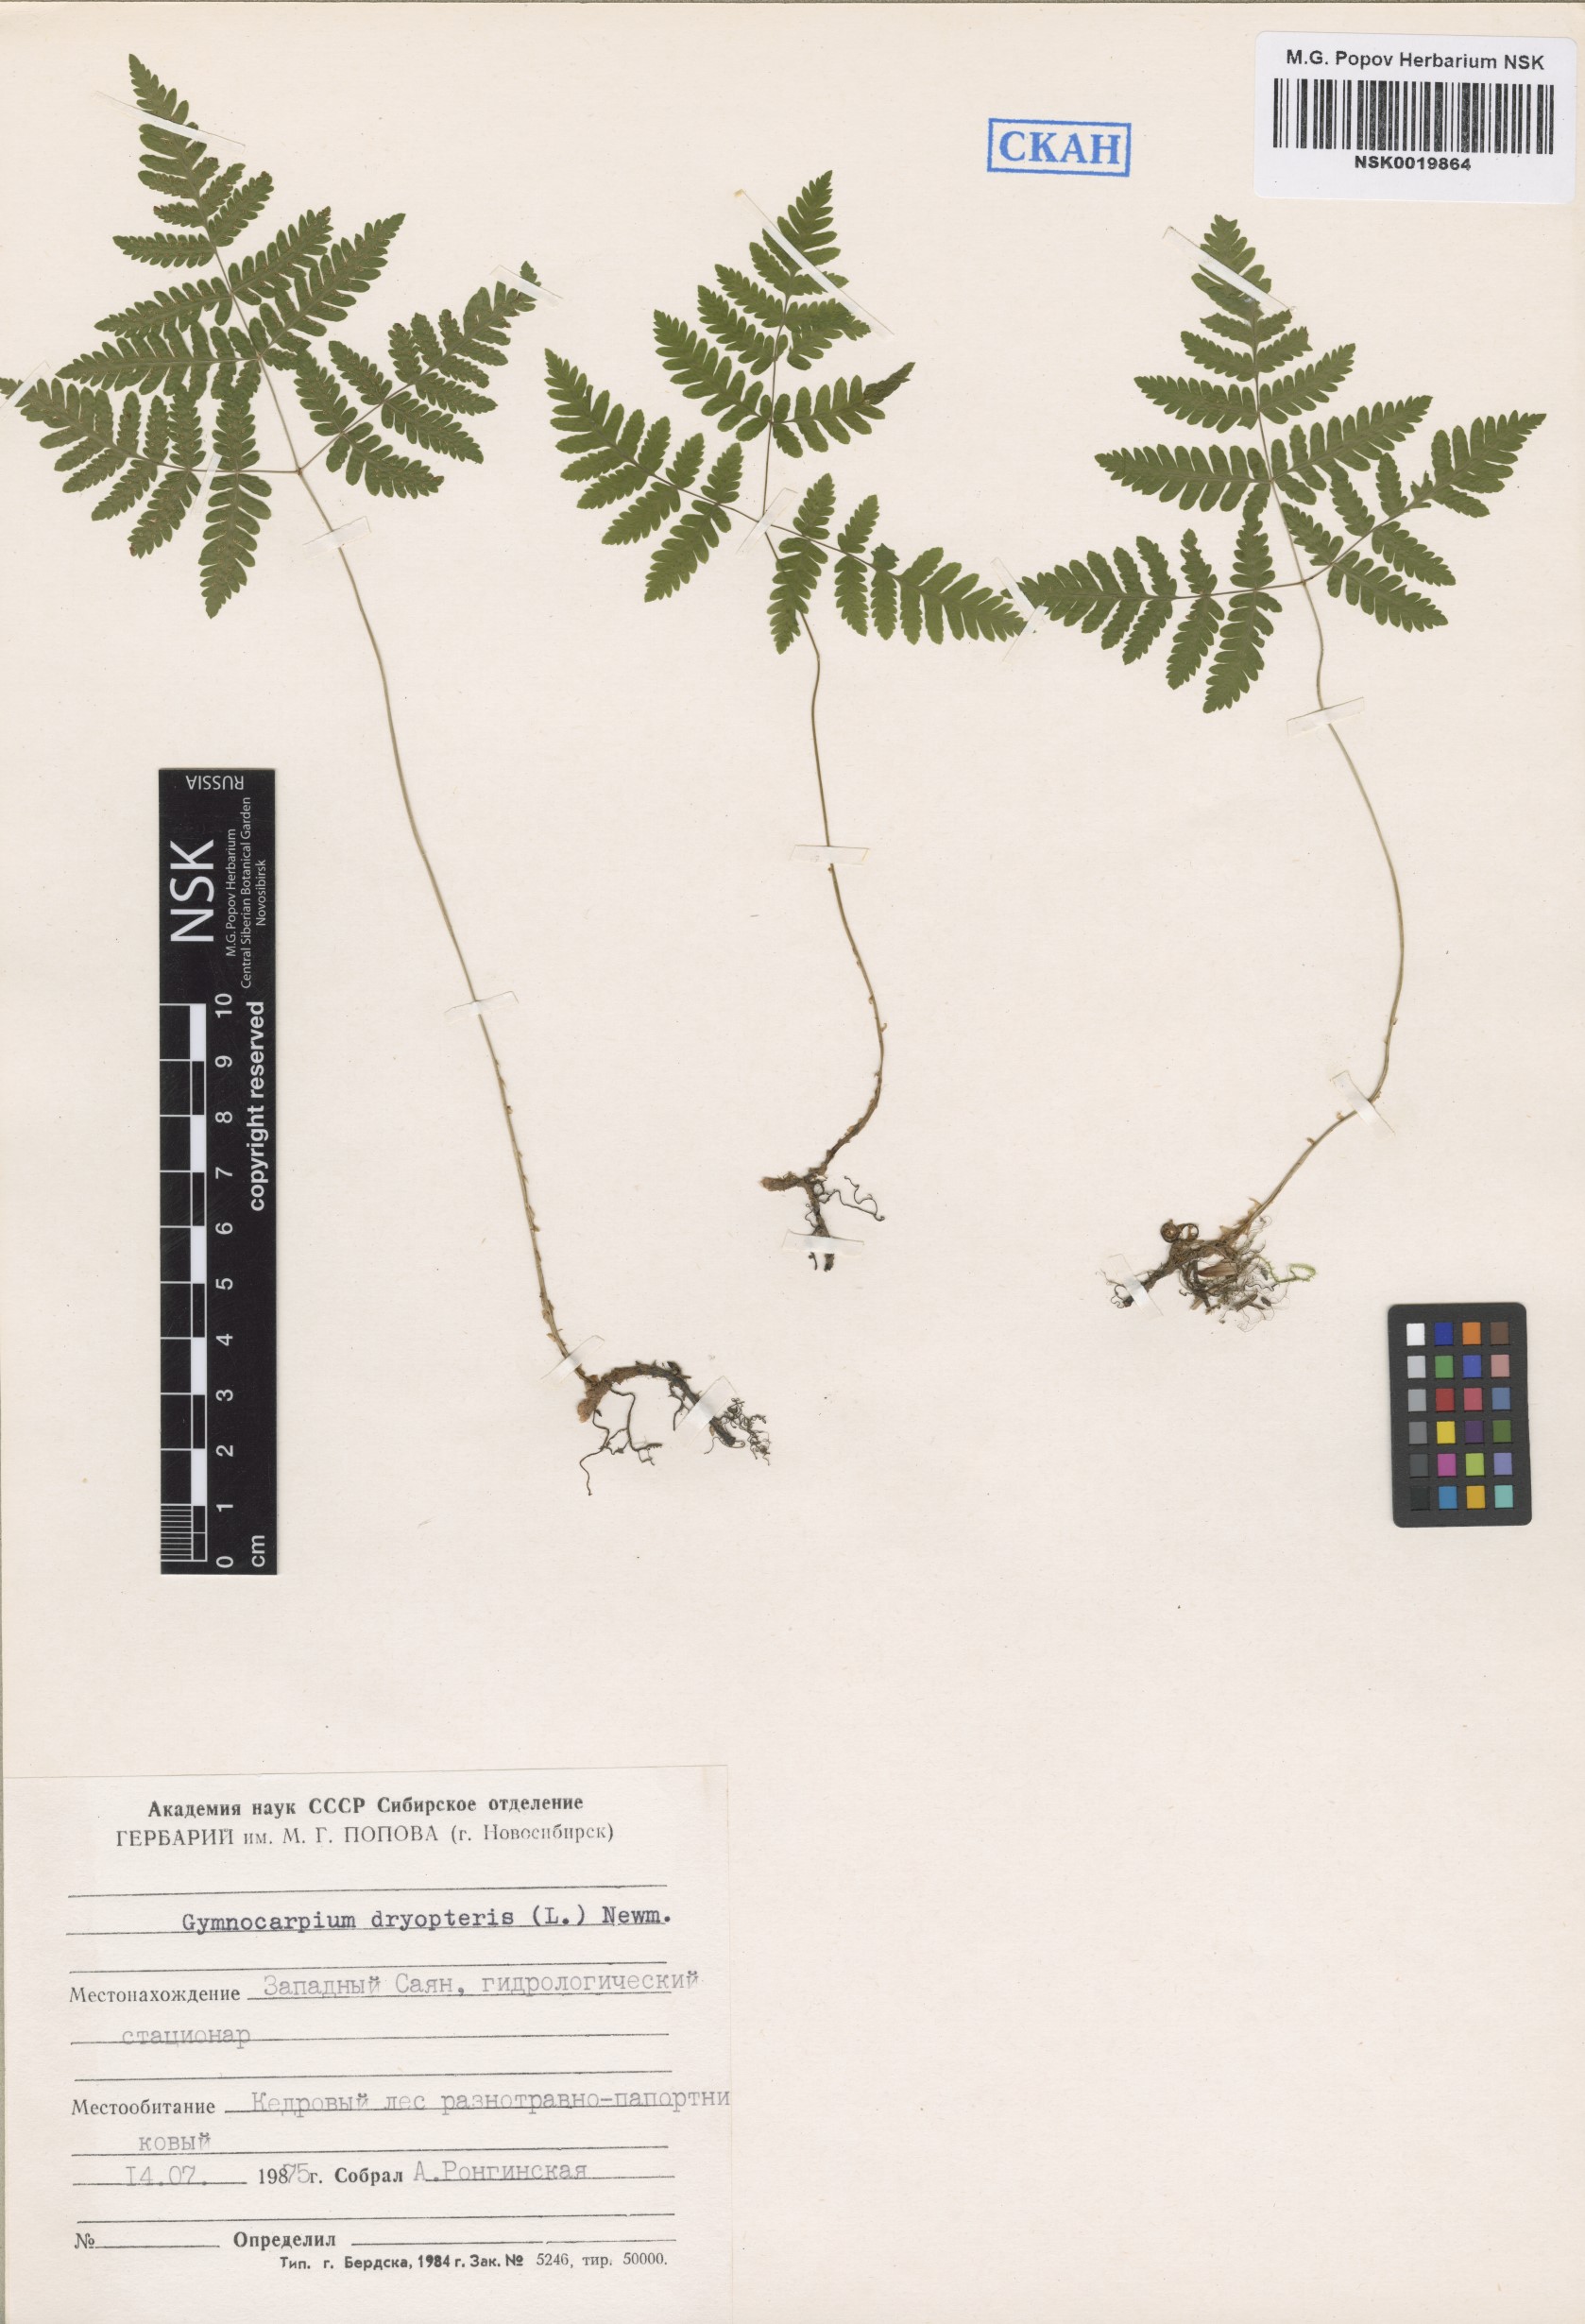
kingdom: Plantae
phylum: Tracheophyta
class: Polypodiopsida
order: Polypodiales
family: Cystopteridaceae
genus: Gymnocarpium
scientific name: Gymnocarpium dryopteris
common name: Oak fern
